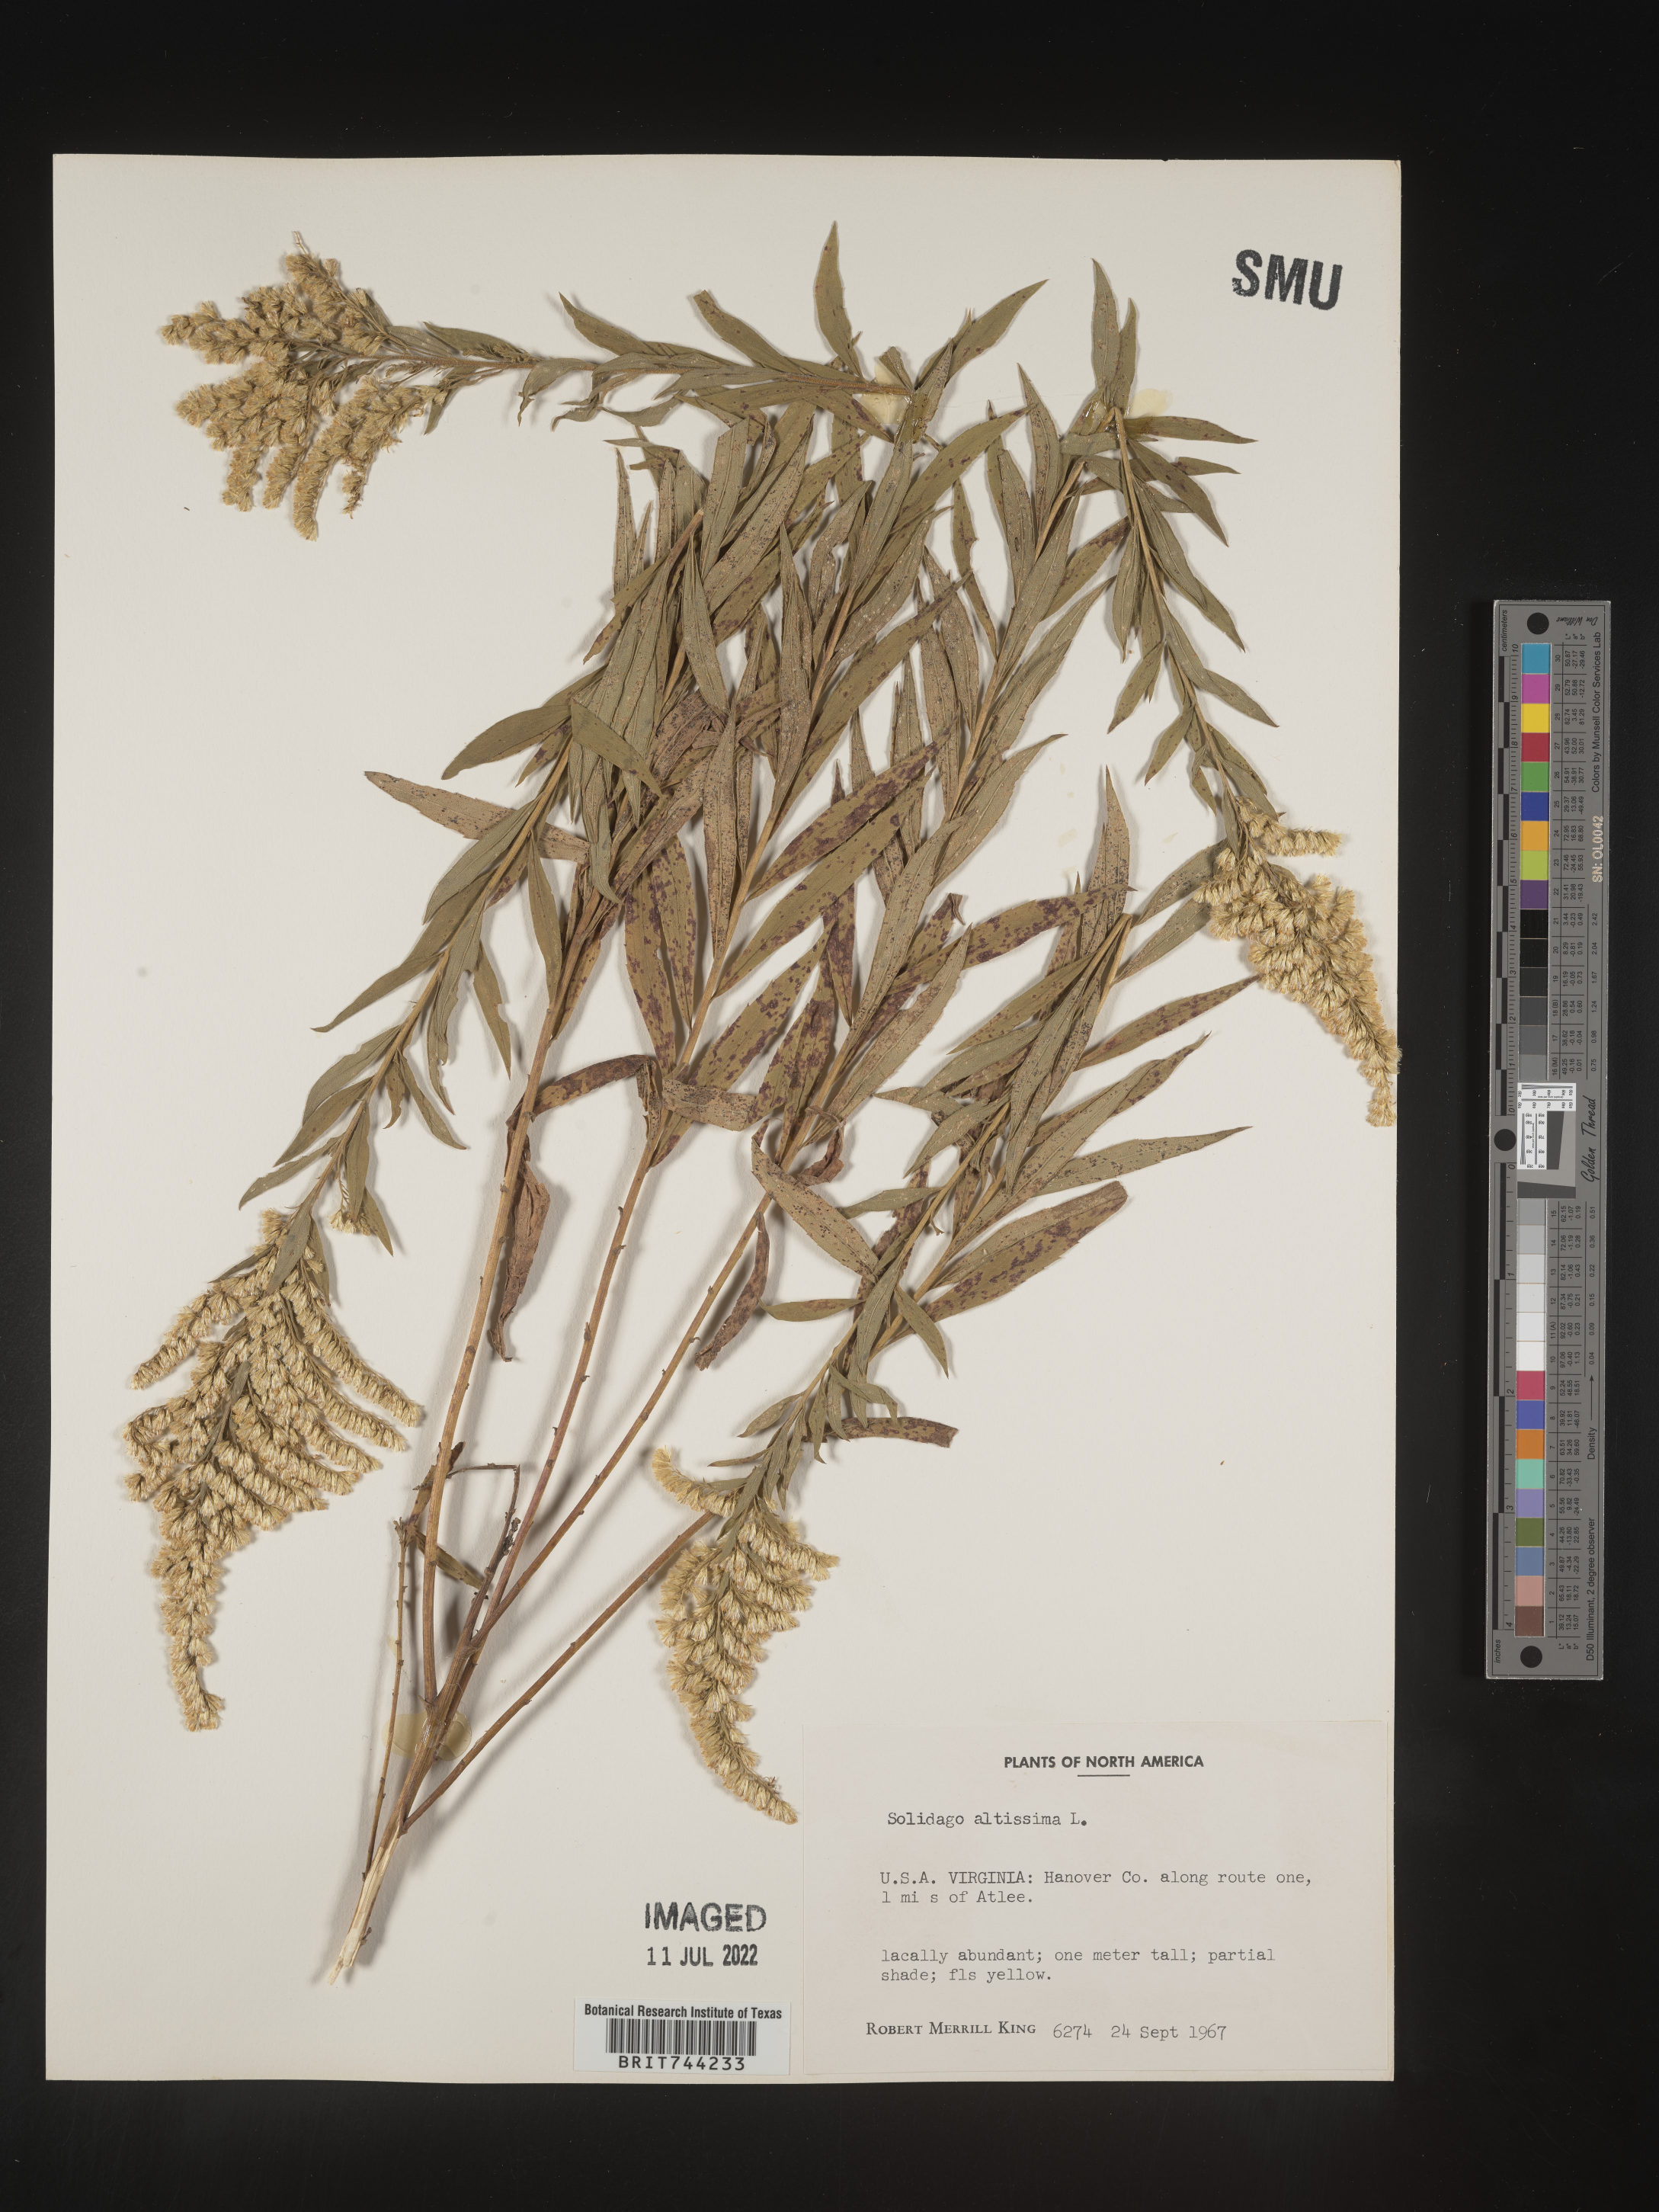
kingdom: Plantae
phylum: Tracheophyta
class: Magnoliopsida
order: Asterales
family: Asteraceae
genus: Solidago
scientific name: Solidago altissima
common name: Late goldenrod
